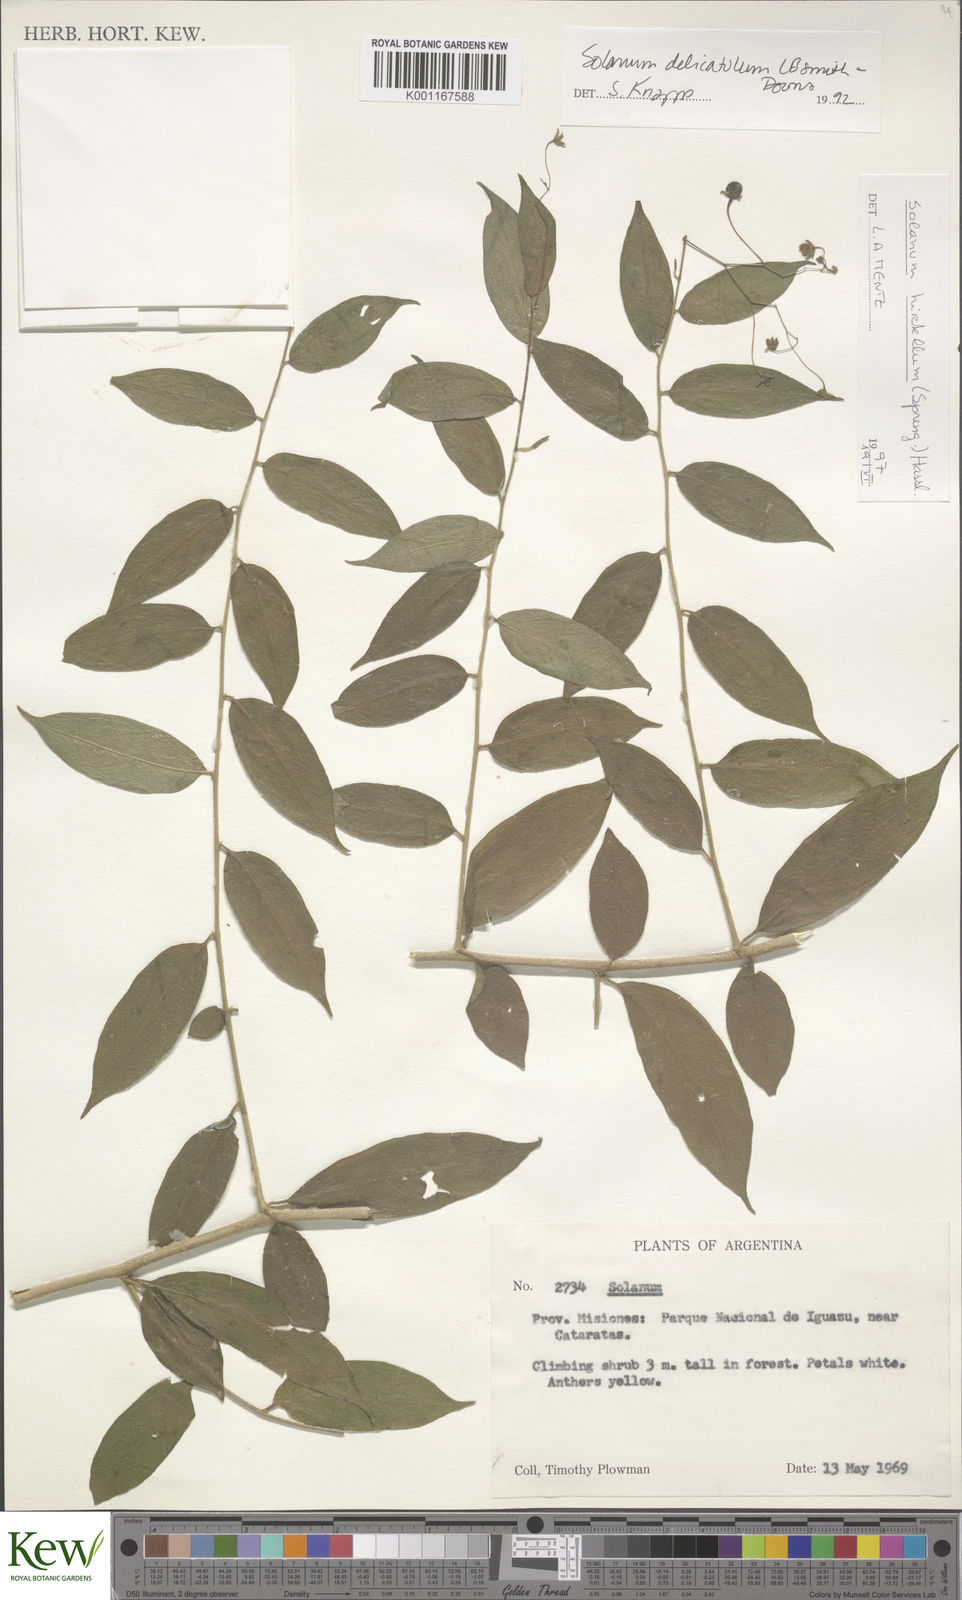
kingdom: Plantae
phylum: Tracheophyta
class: Magnoliopsida
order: Solanales
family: Solanaceae
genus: Solanum
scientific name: Solanum hirtellum
